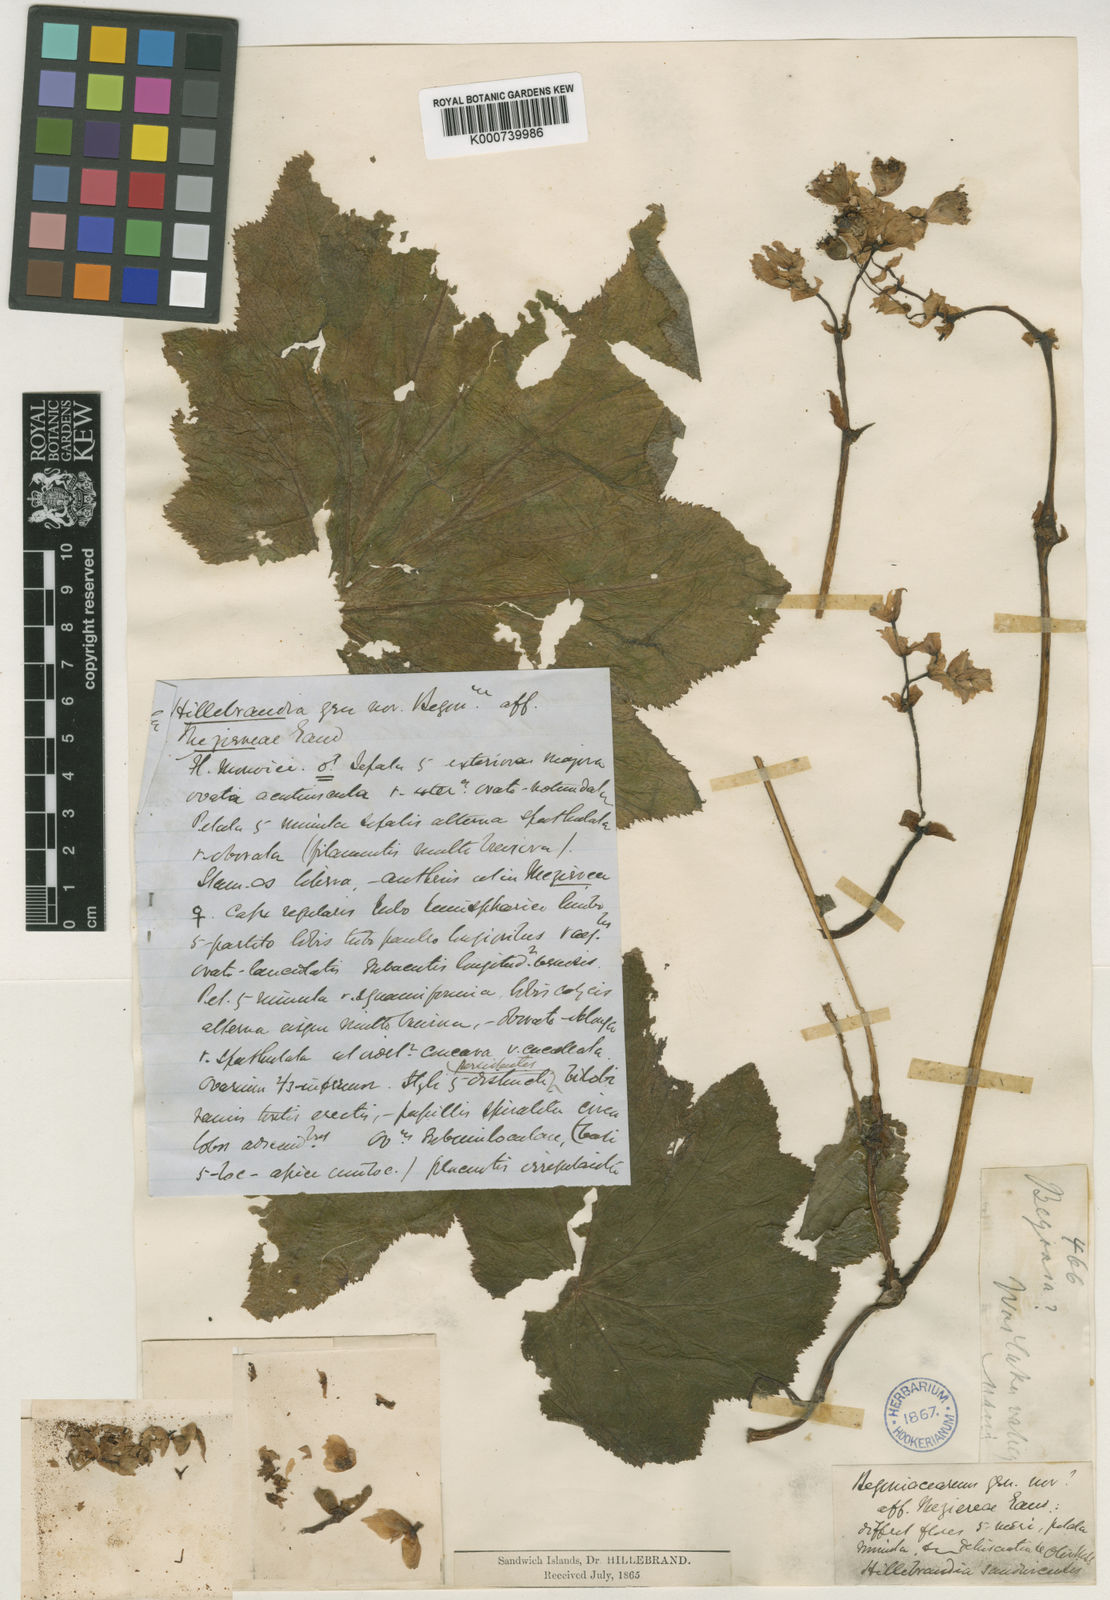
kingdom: Plantae
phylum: Tracheophyta
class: Magnoliopsida
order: Cucurbitales
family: Begoniaceae
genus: Hillebrandia
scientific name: Hillebrandia sandwicensis
